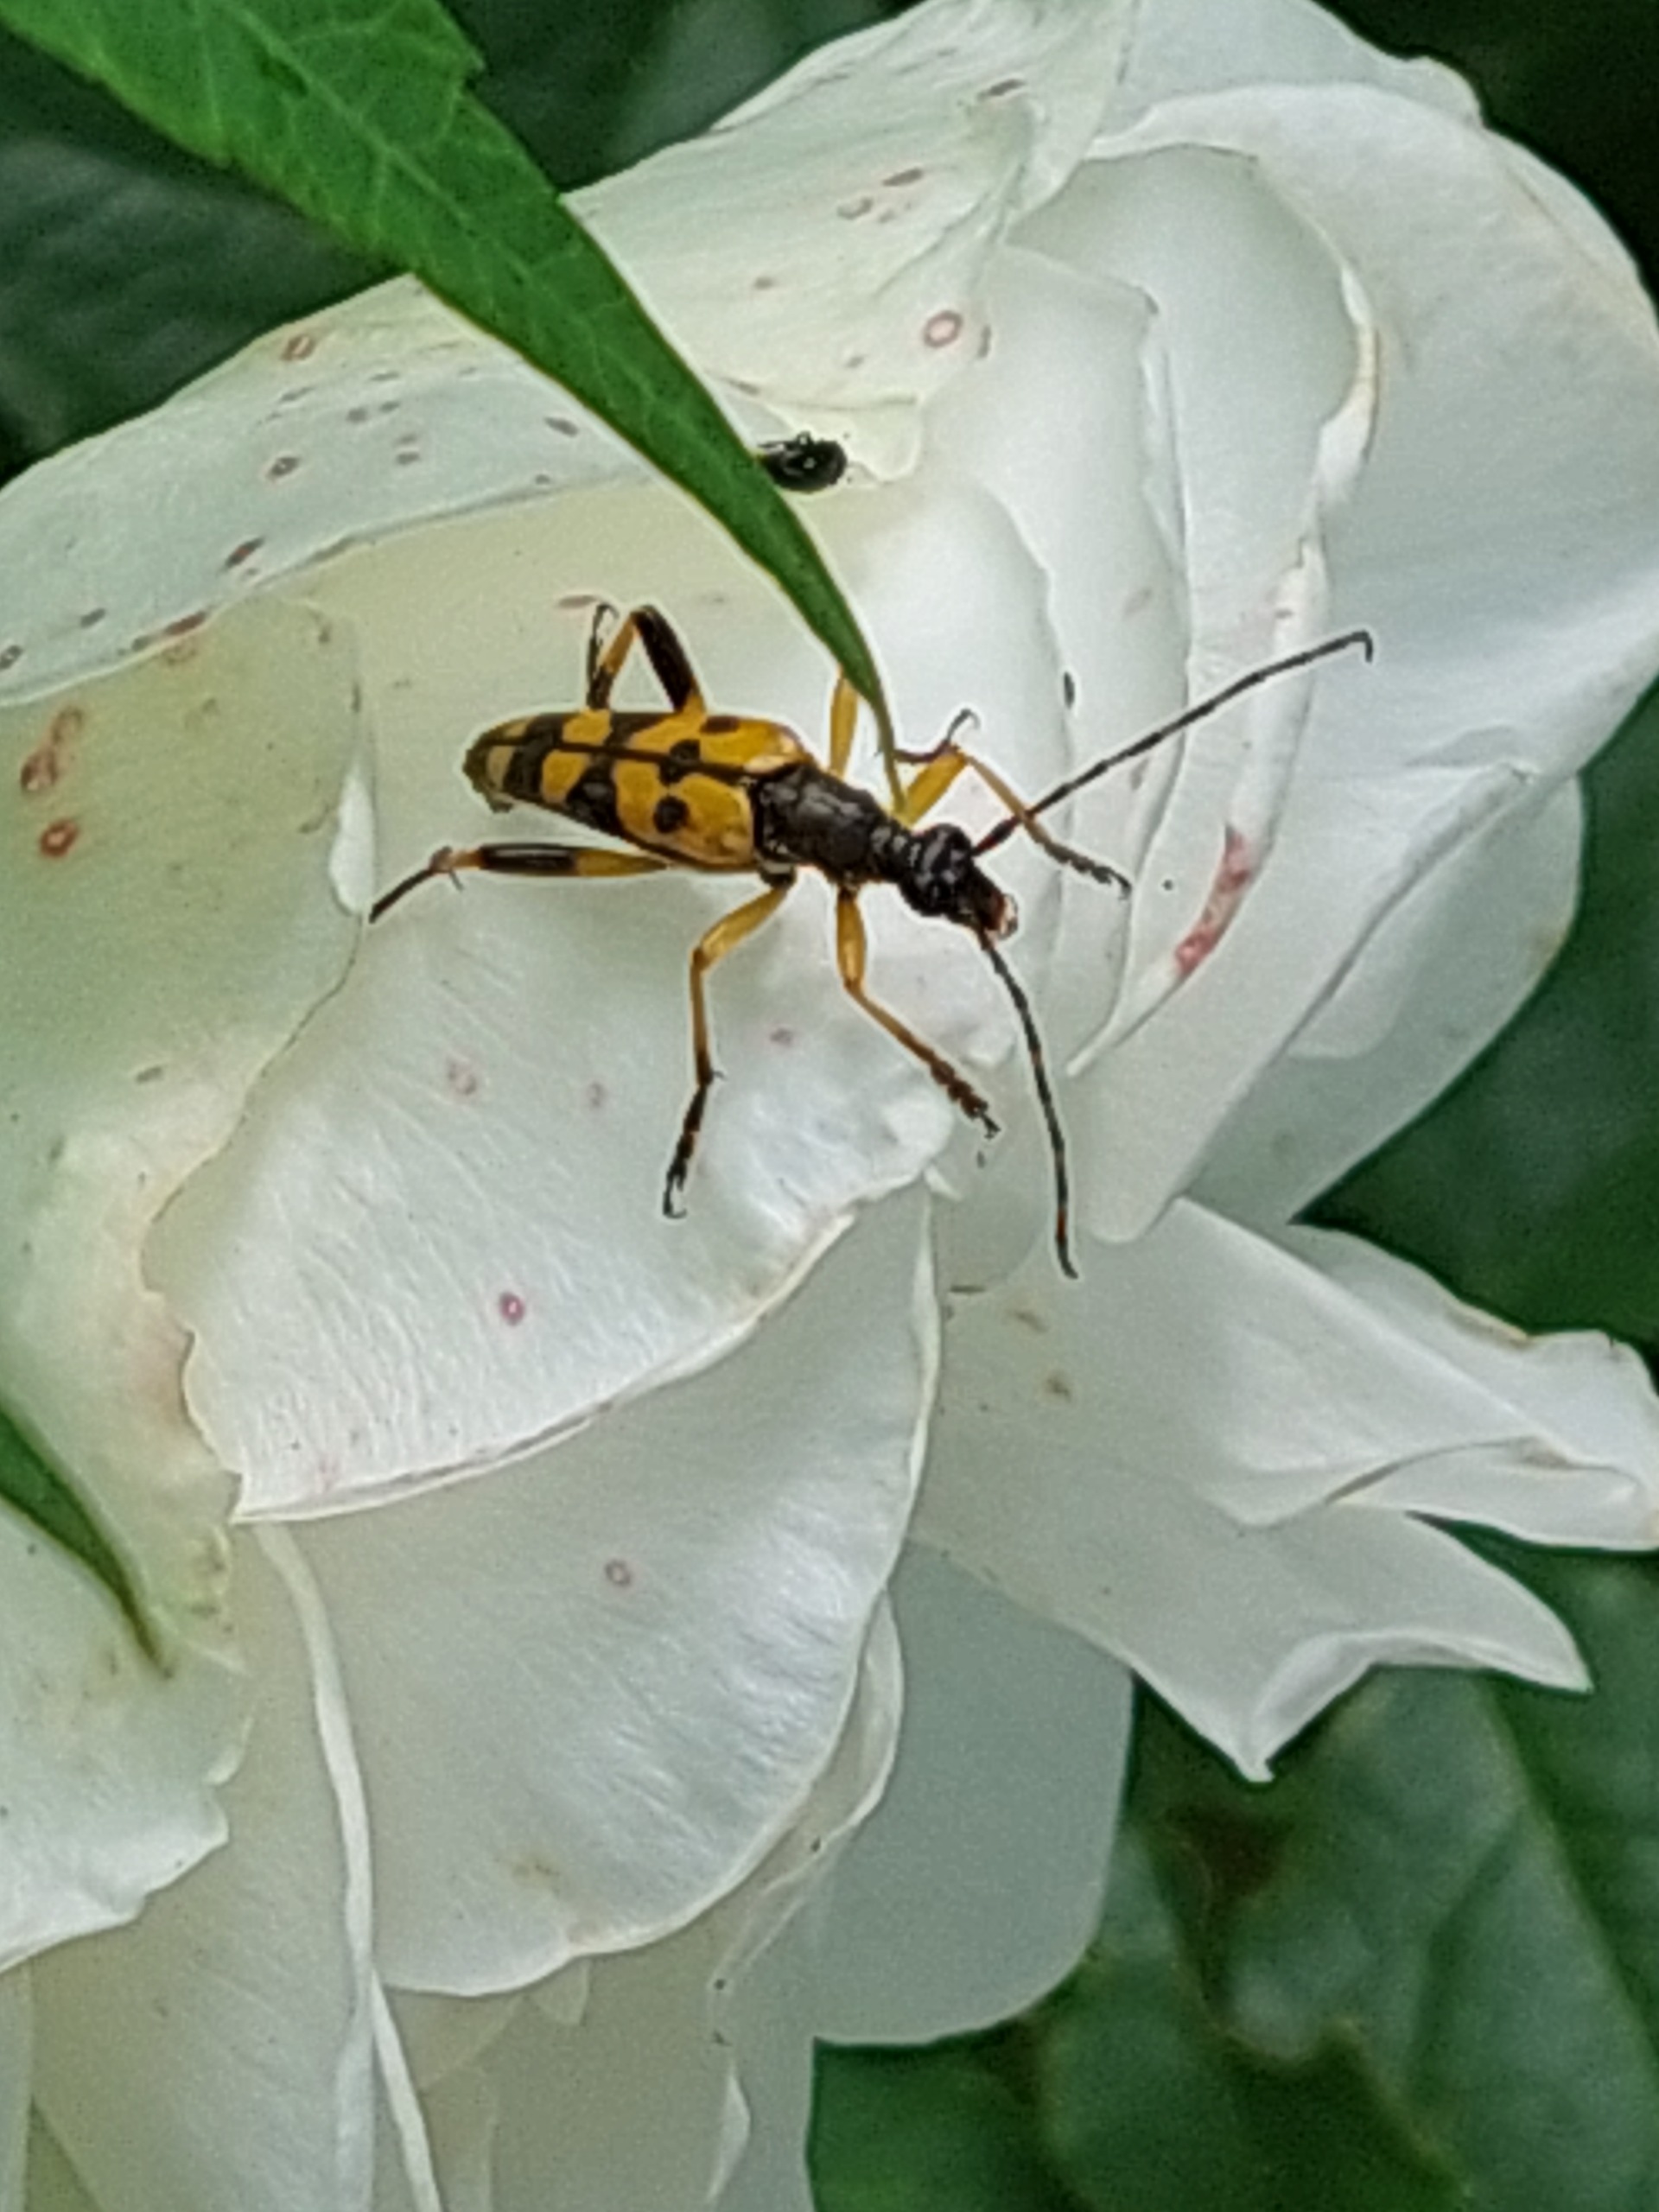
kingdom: Animalia
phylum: Arthropoda
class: Insecta
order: Coleoptera
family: Cerambycidae
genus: Rutpela
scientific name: Rutpela maculata
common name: Sydlig blomsterbuk
